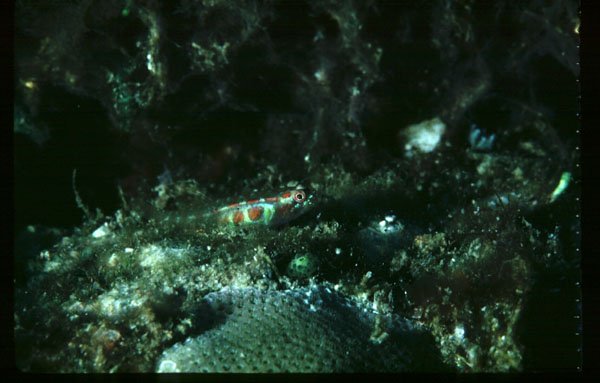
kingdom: Animalia
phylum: Chordata
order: Perciformes
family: Gobiidae
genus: Eviota
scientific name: Eviota
